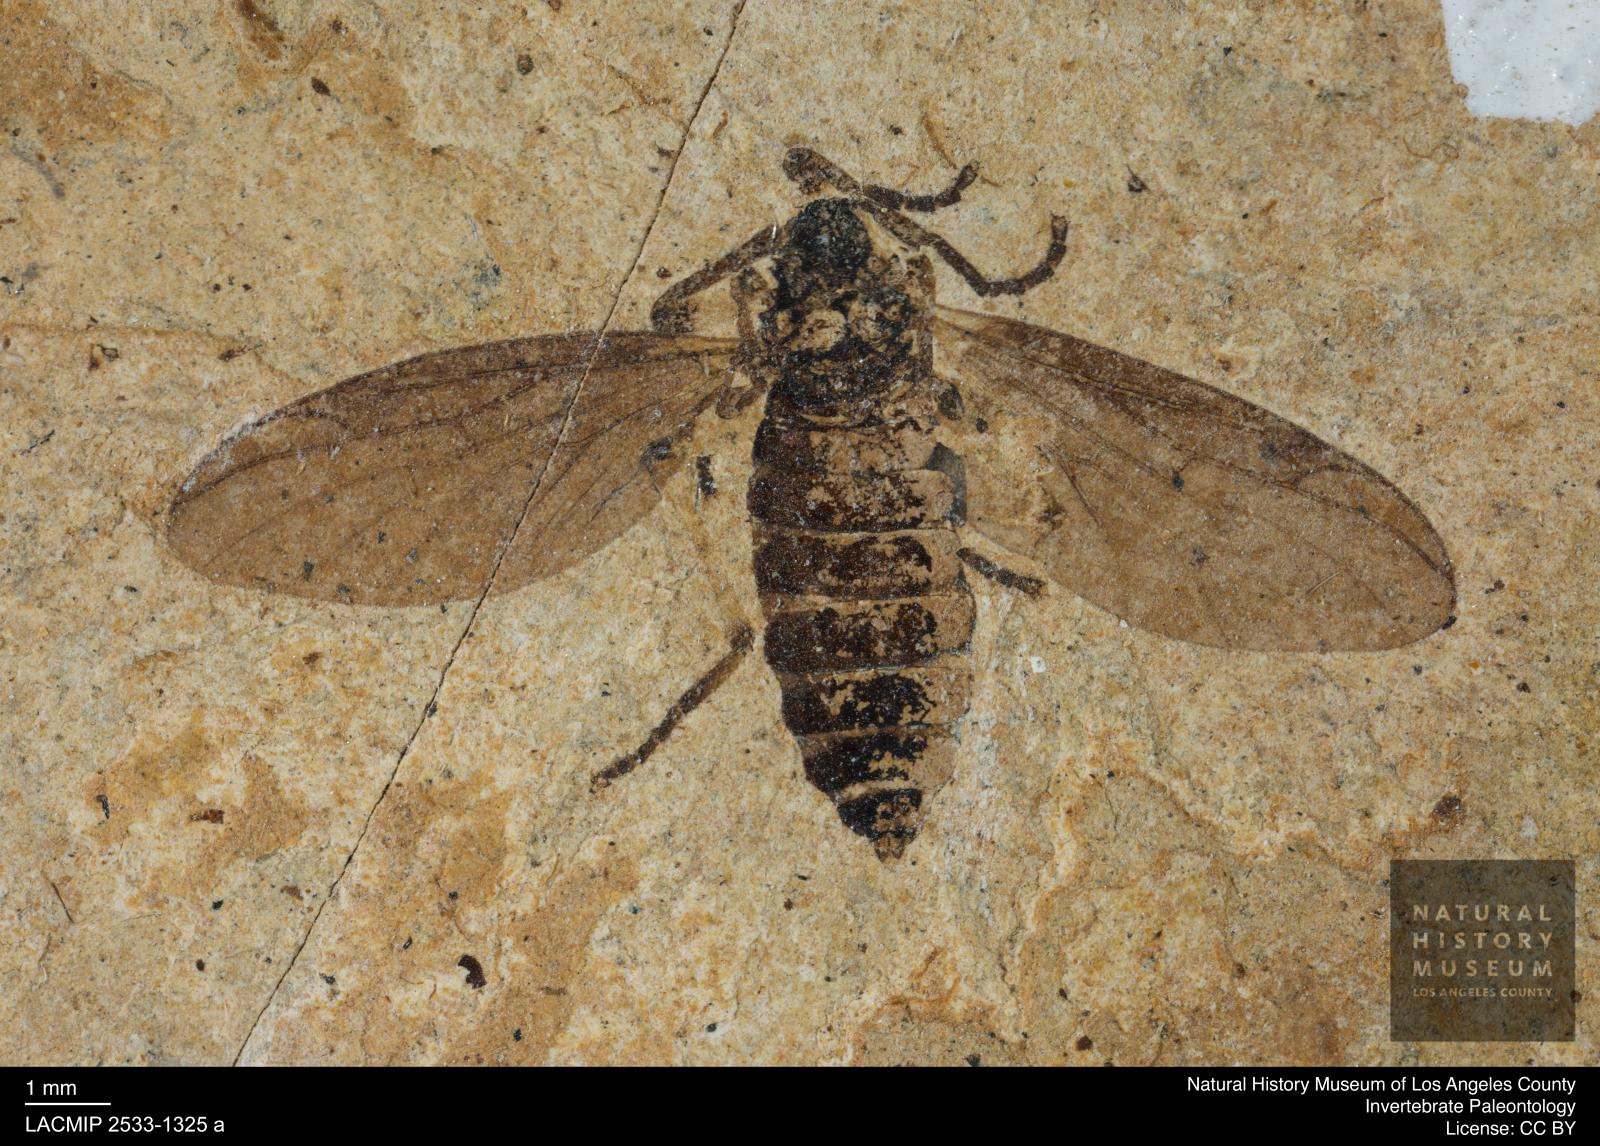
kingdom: Animalia
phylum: Arthropoda
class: Insecta
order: Diptera
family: Bibionidae
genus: Plecia
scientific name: Plecia grossa
